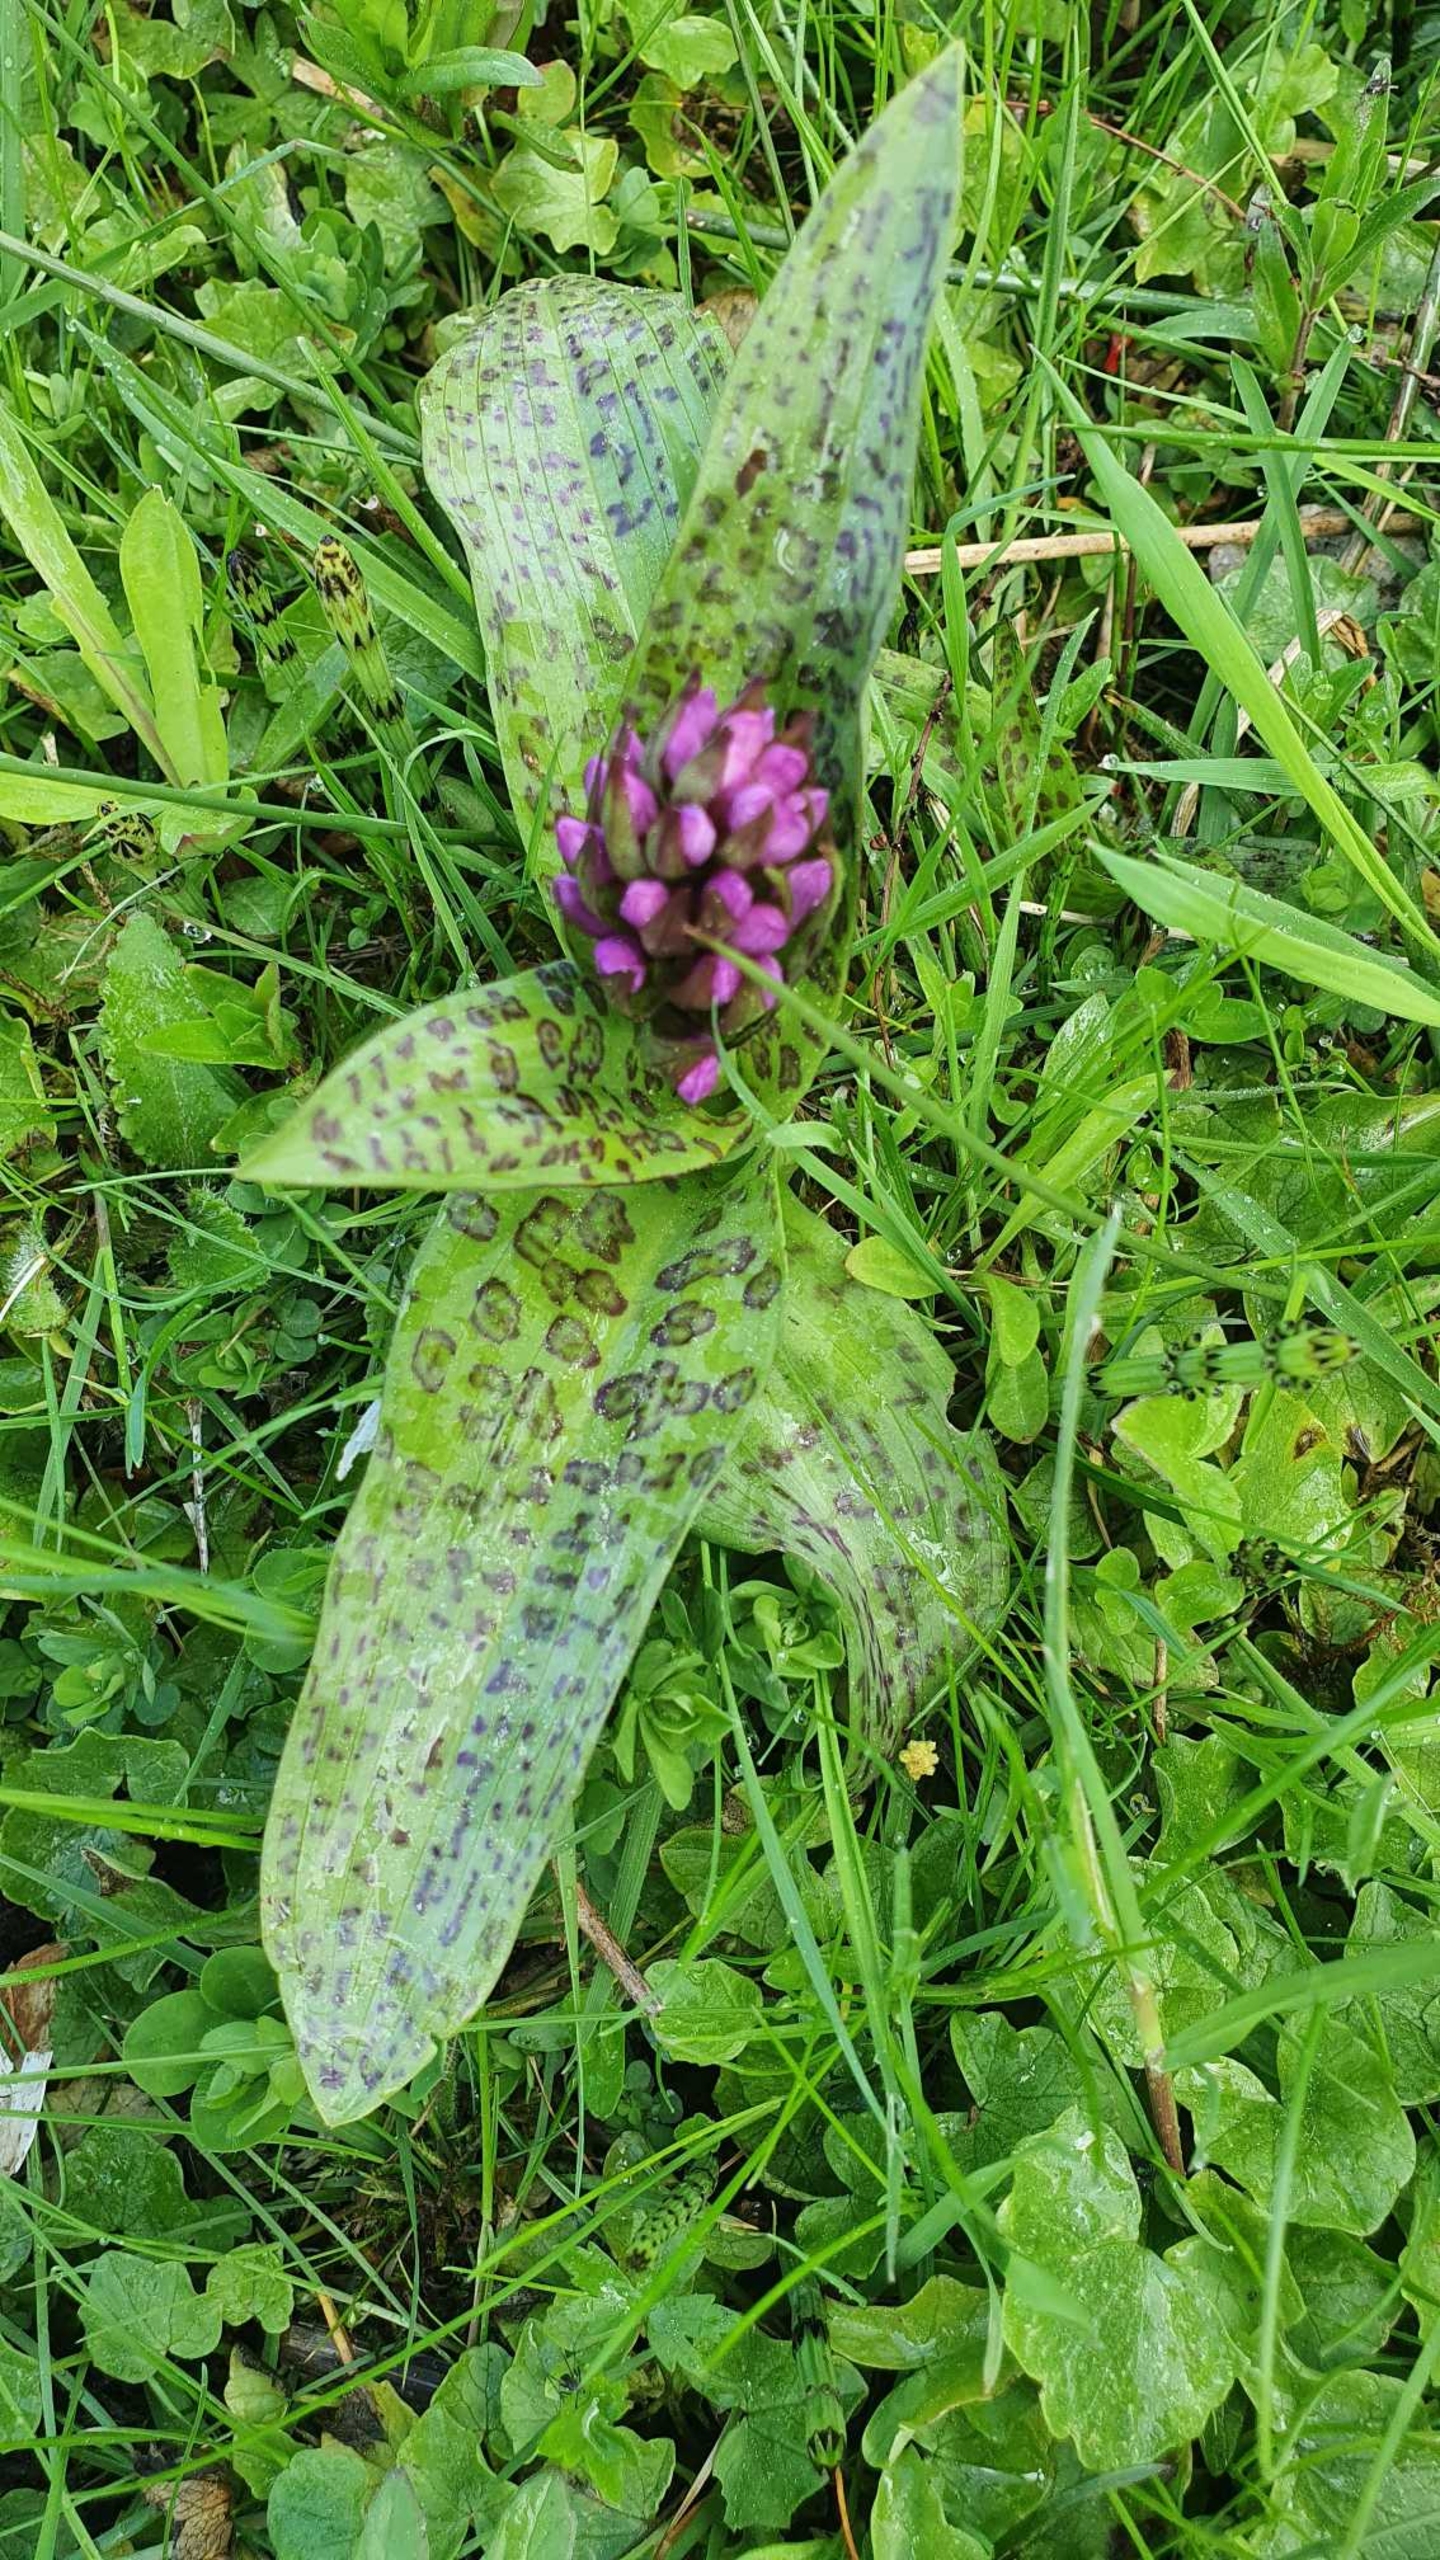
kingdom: Plantae
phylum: Tracheophyta
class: Liliopsida
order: Asparagales
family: Orchidaceae
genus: Dactylorhiza
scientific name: Dactylorhiza majalis
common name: Maj-gøgeurt
